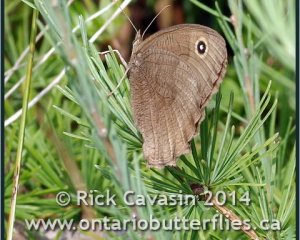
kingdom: Animalia
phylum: Arthropoda
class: Insecta
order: Lepidoptera
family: Nymphalidae
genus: Cercyonis
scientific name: Cercyonis pegala
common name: Common Wood-Nymph
